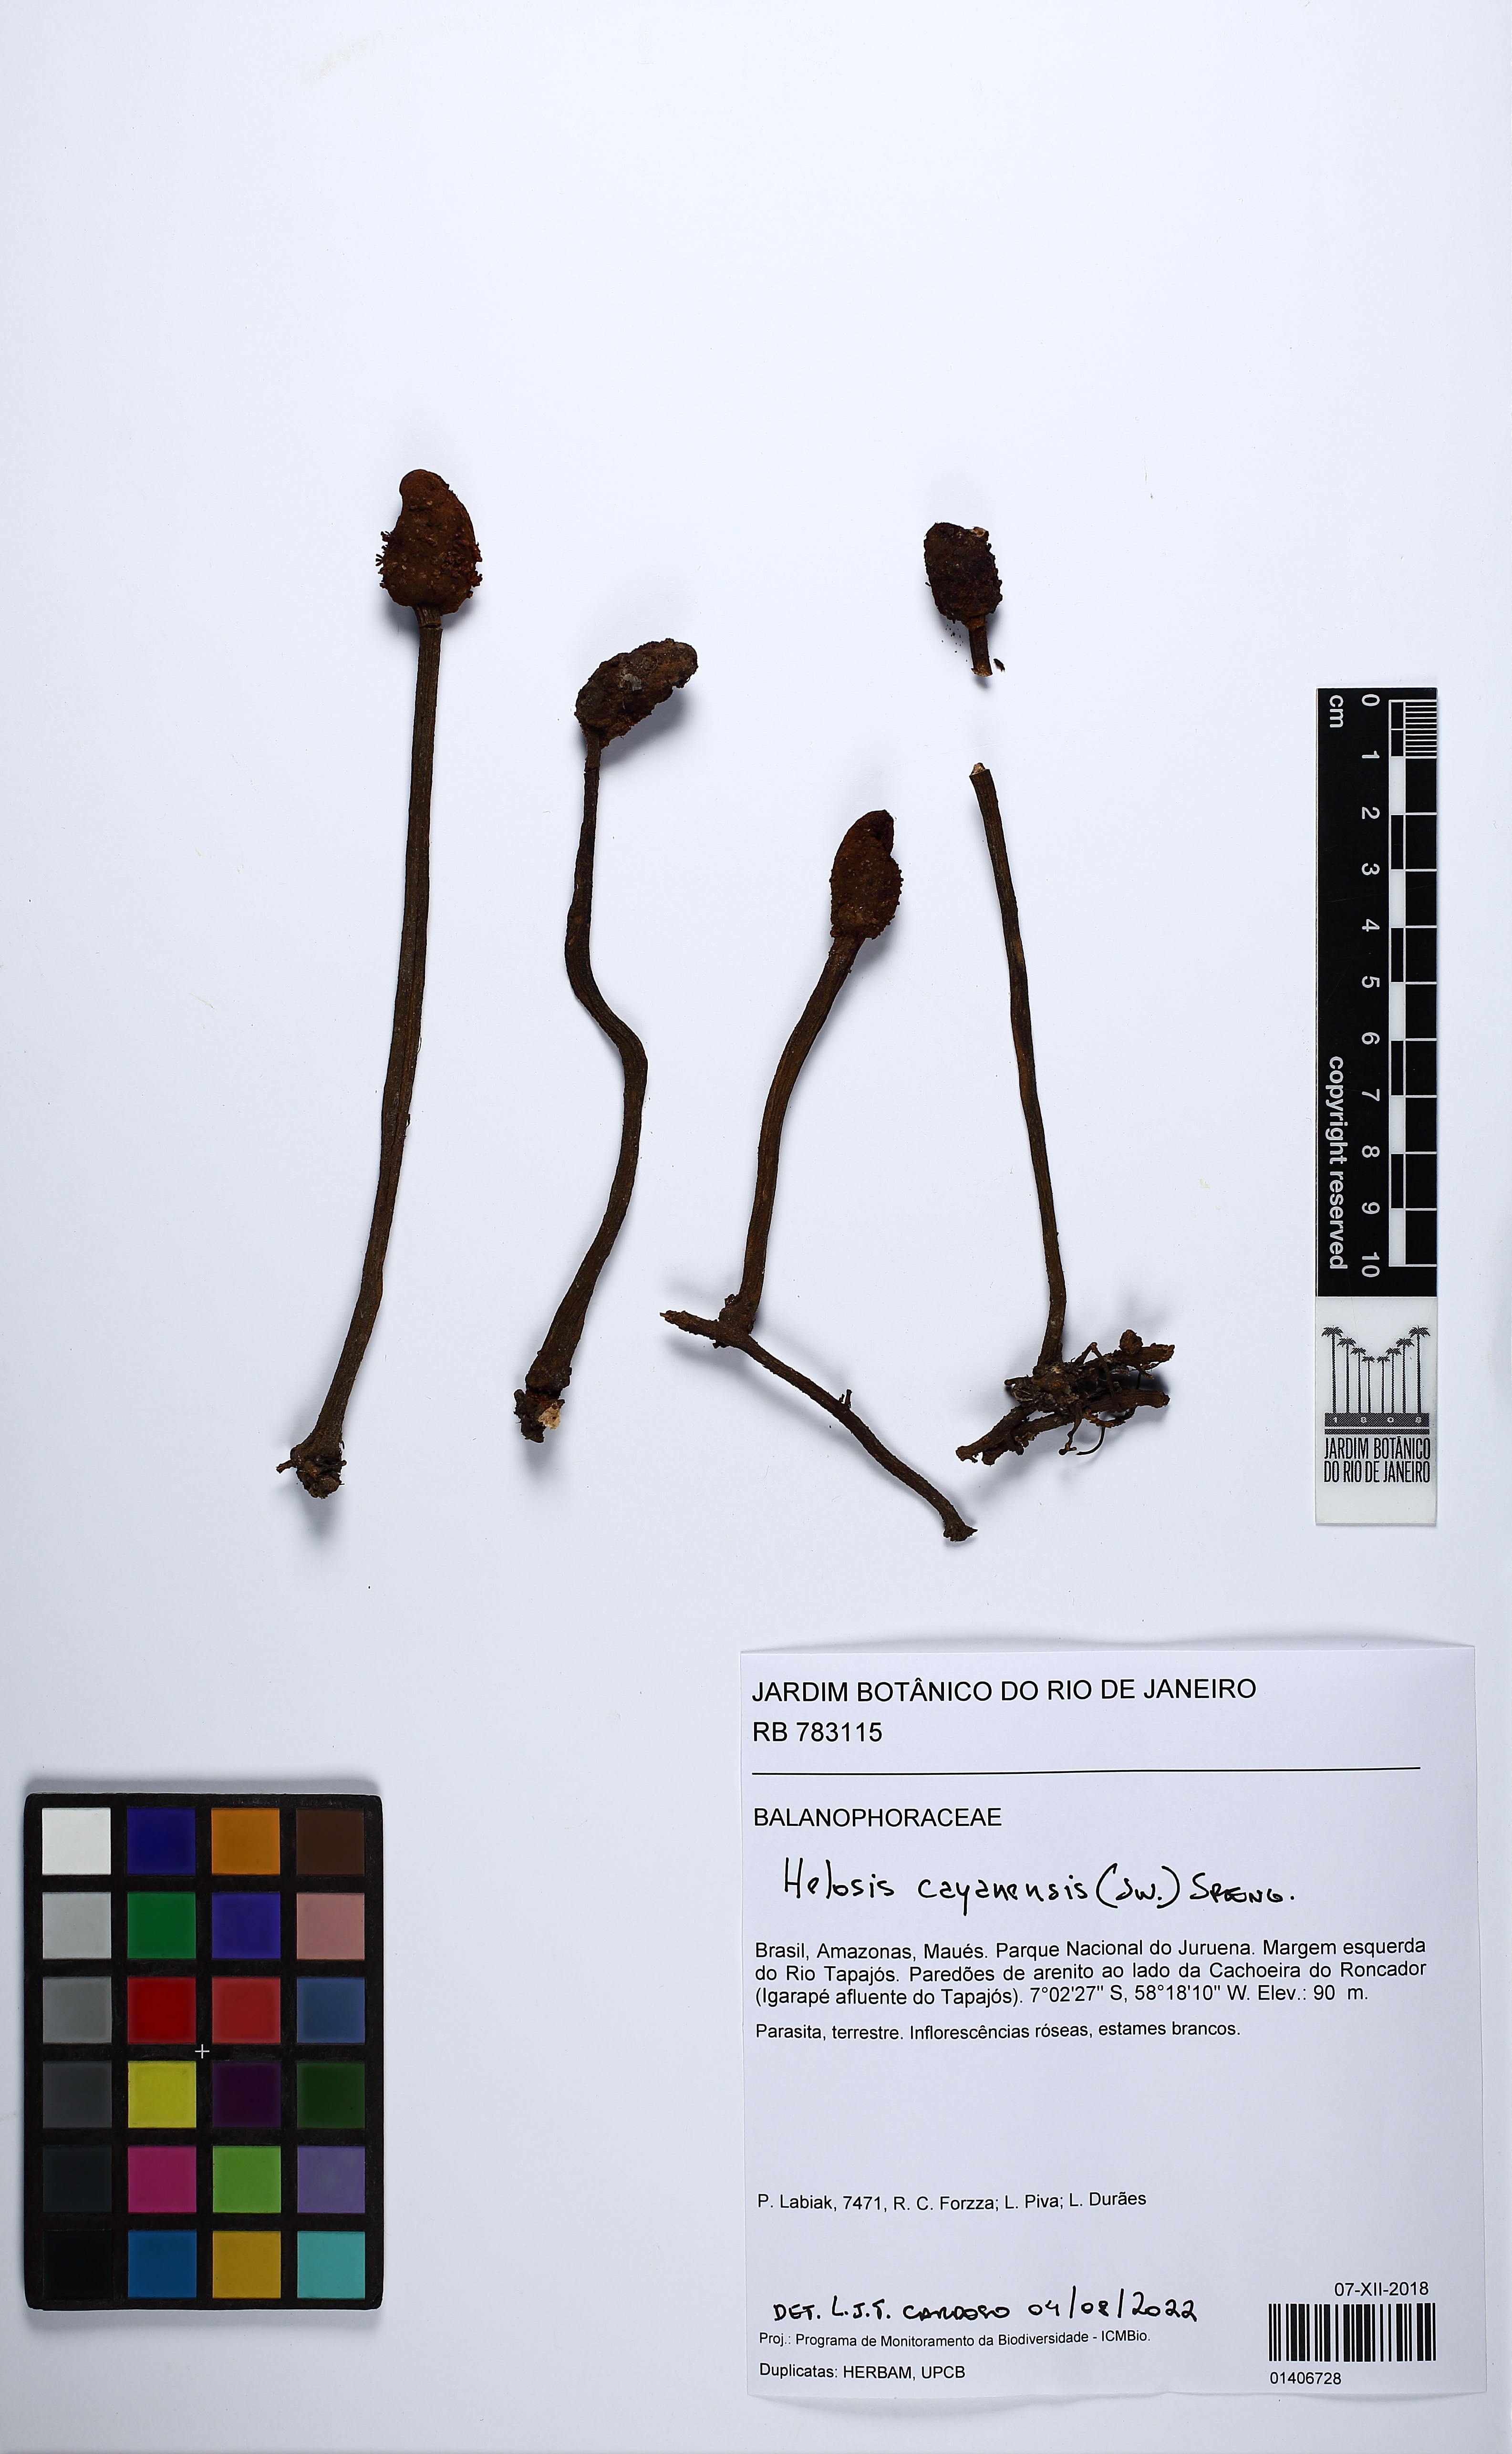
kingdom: Plantae
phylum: Tracheophyta
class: Magnoliopsida
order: Santalales
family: Balanophoraceae
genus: Helosis
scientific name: Helosis cayennensis
